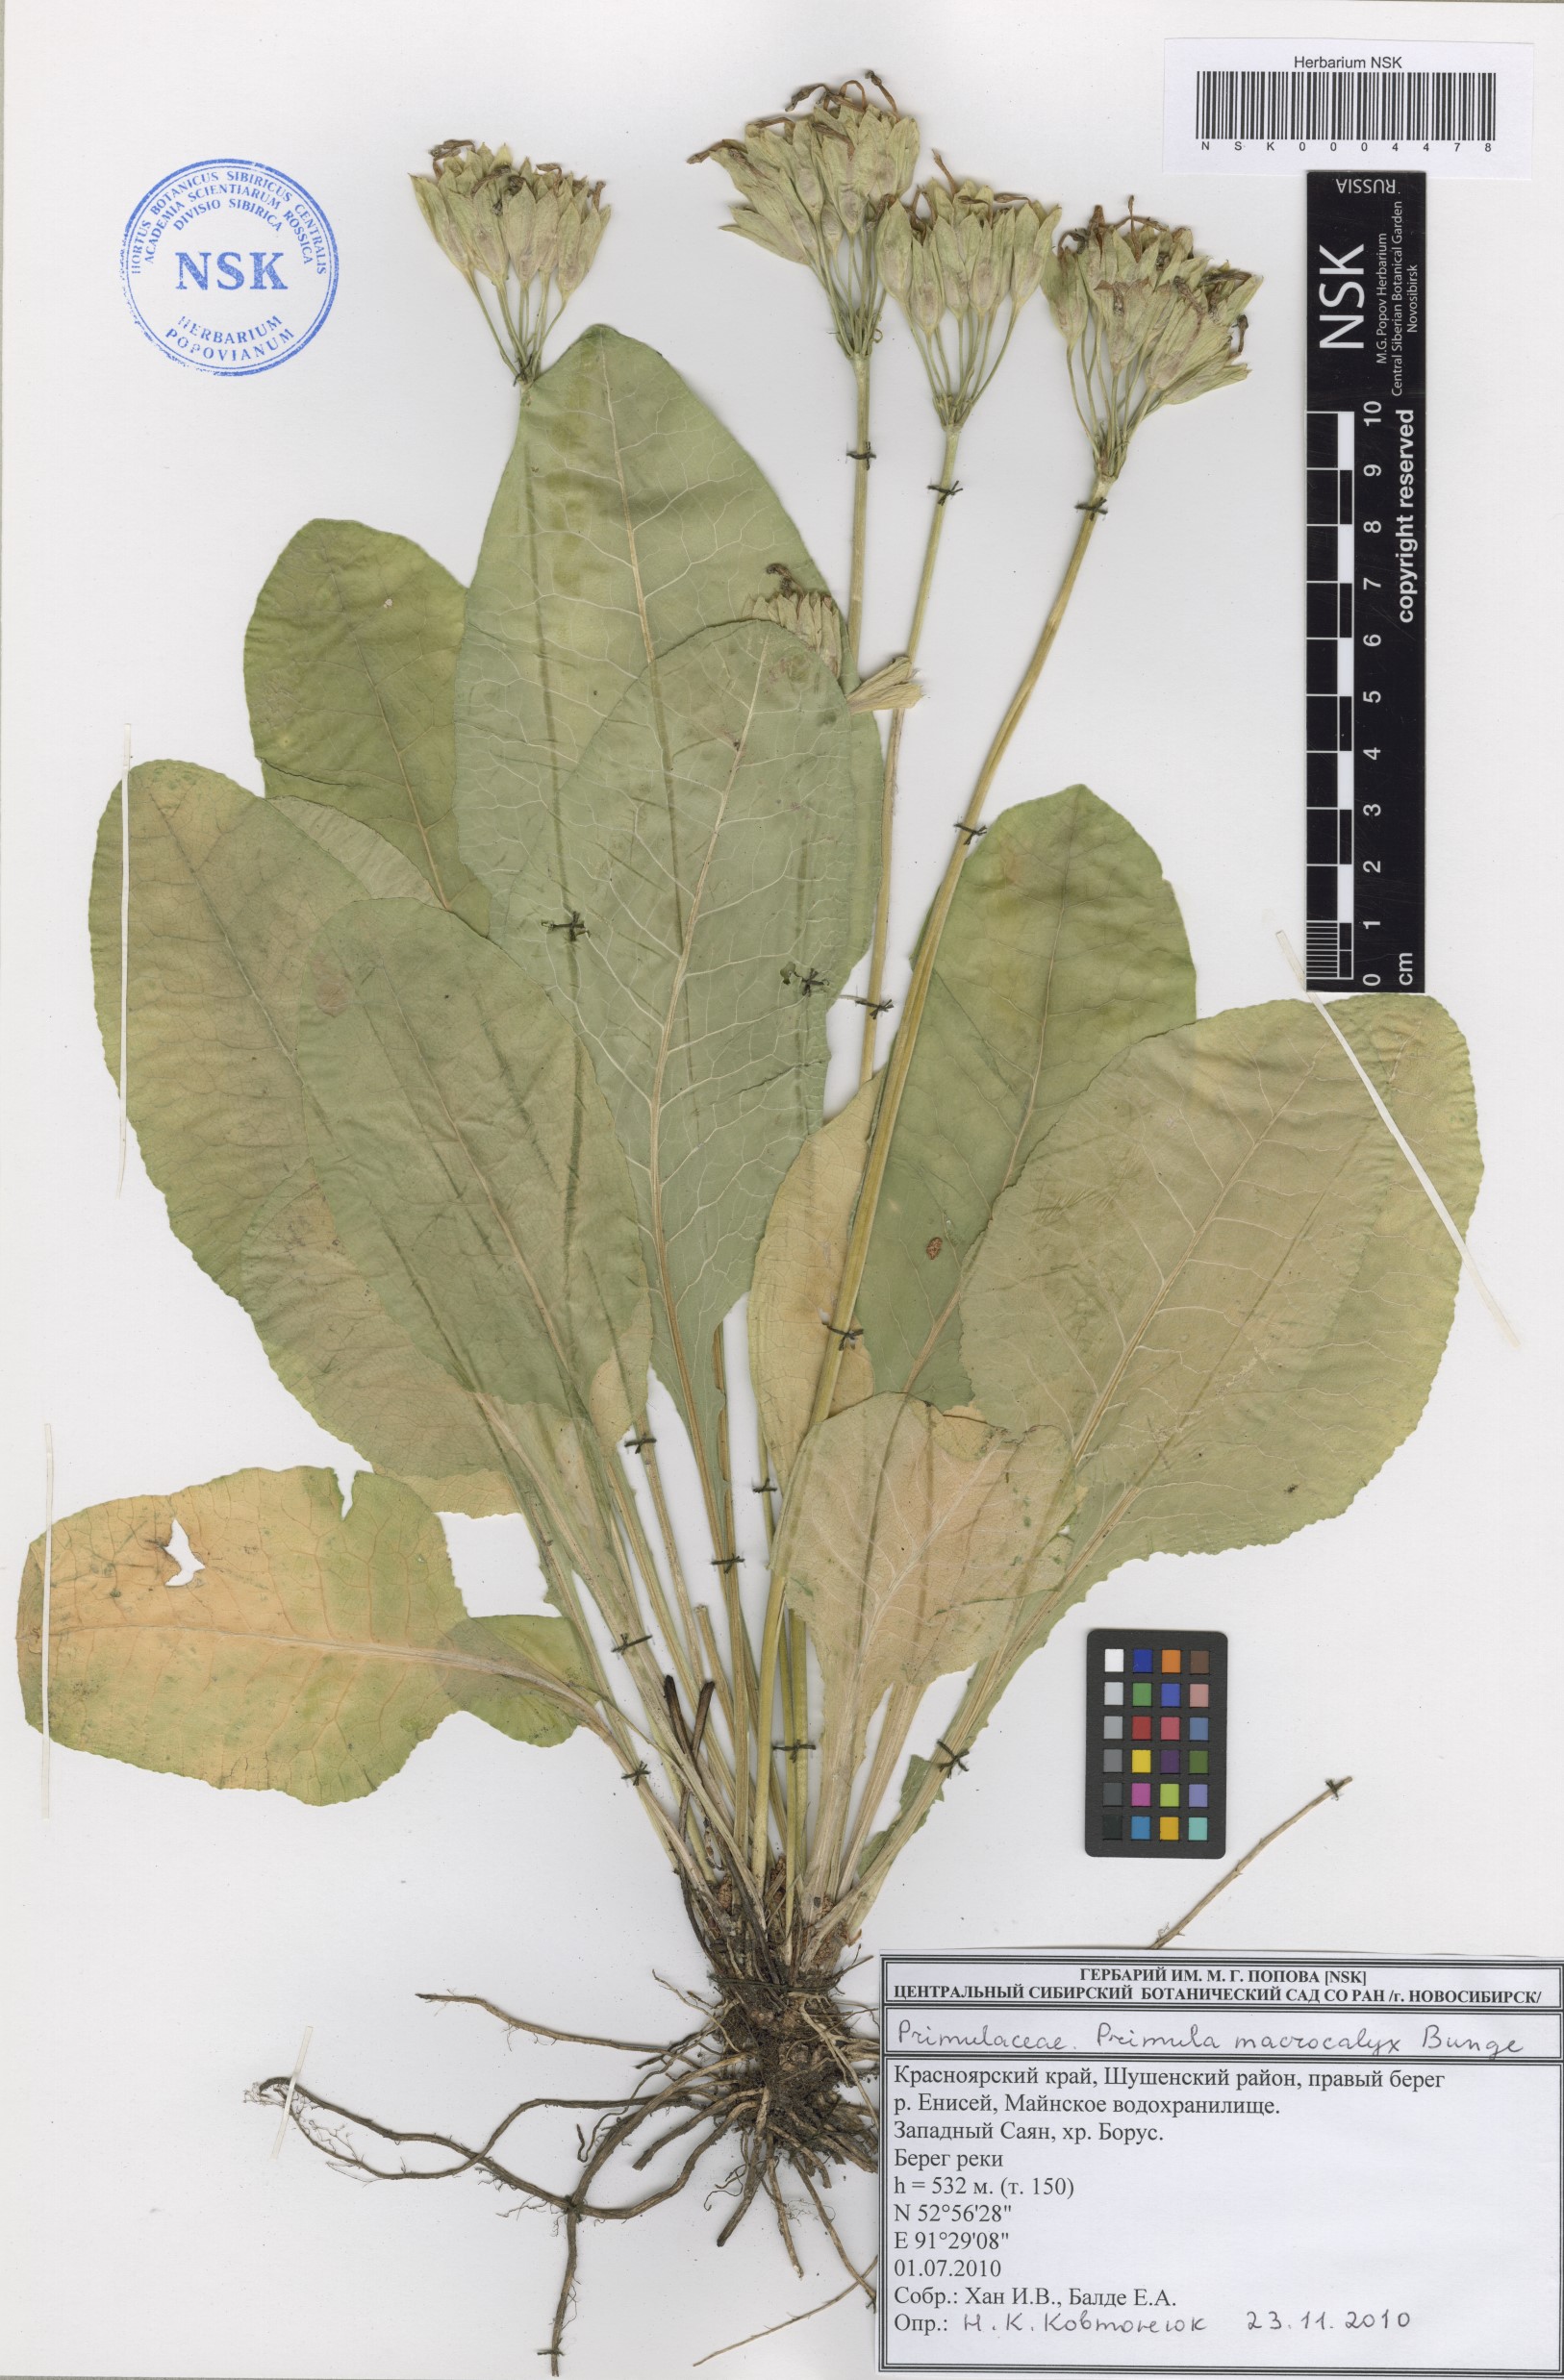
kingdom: Plantae
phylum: Tracheophyta
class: Magnoliopsida
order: Ericales
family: Primulaceae
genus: Primula
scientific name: Primula veris
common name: Cowslip
